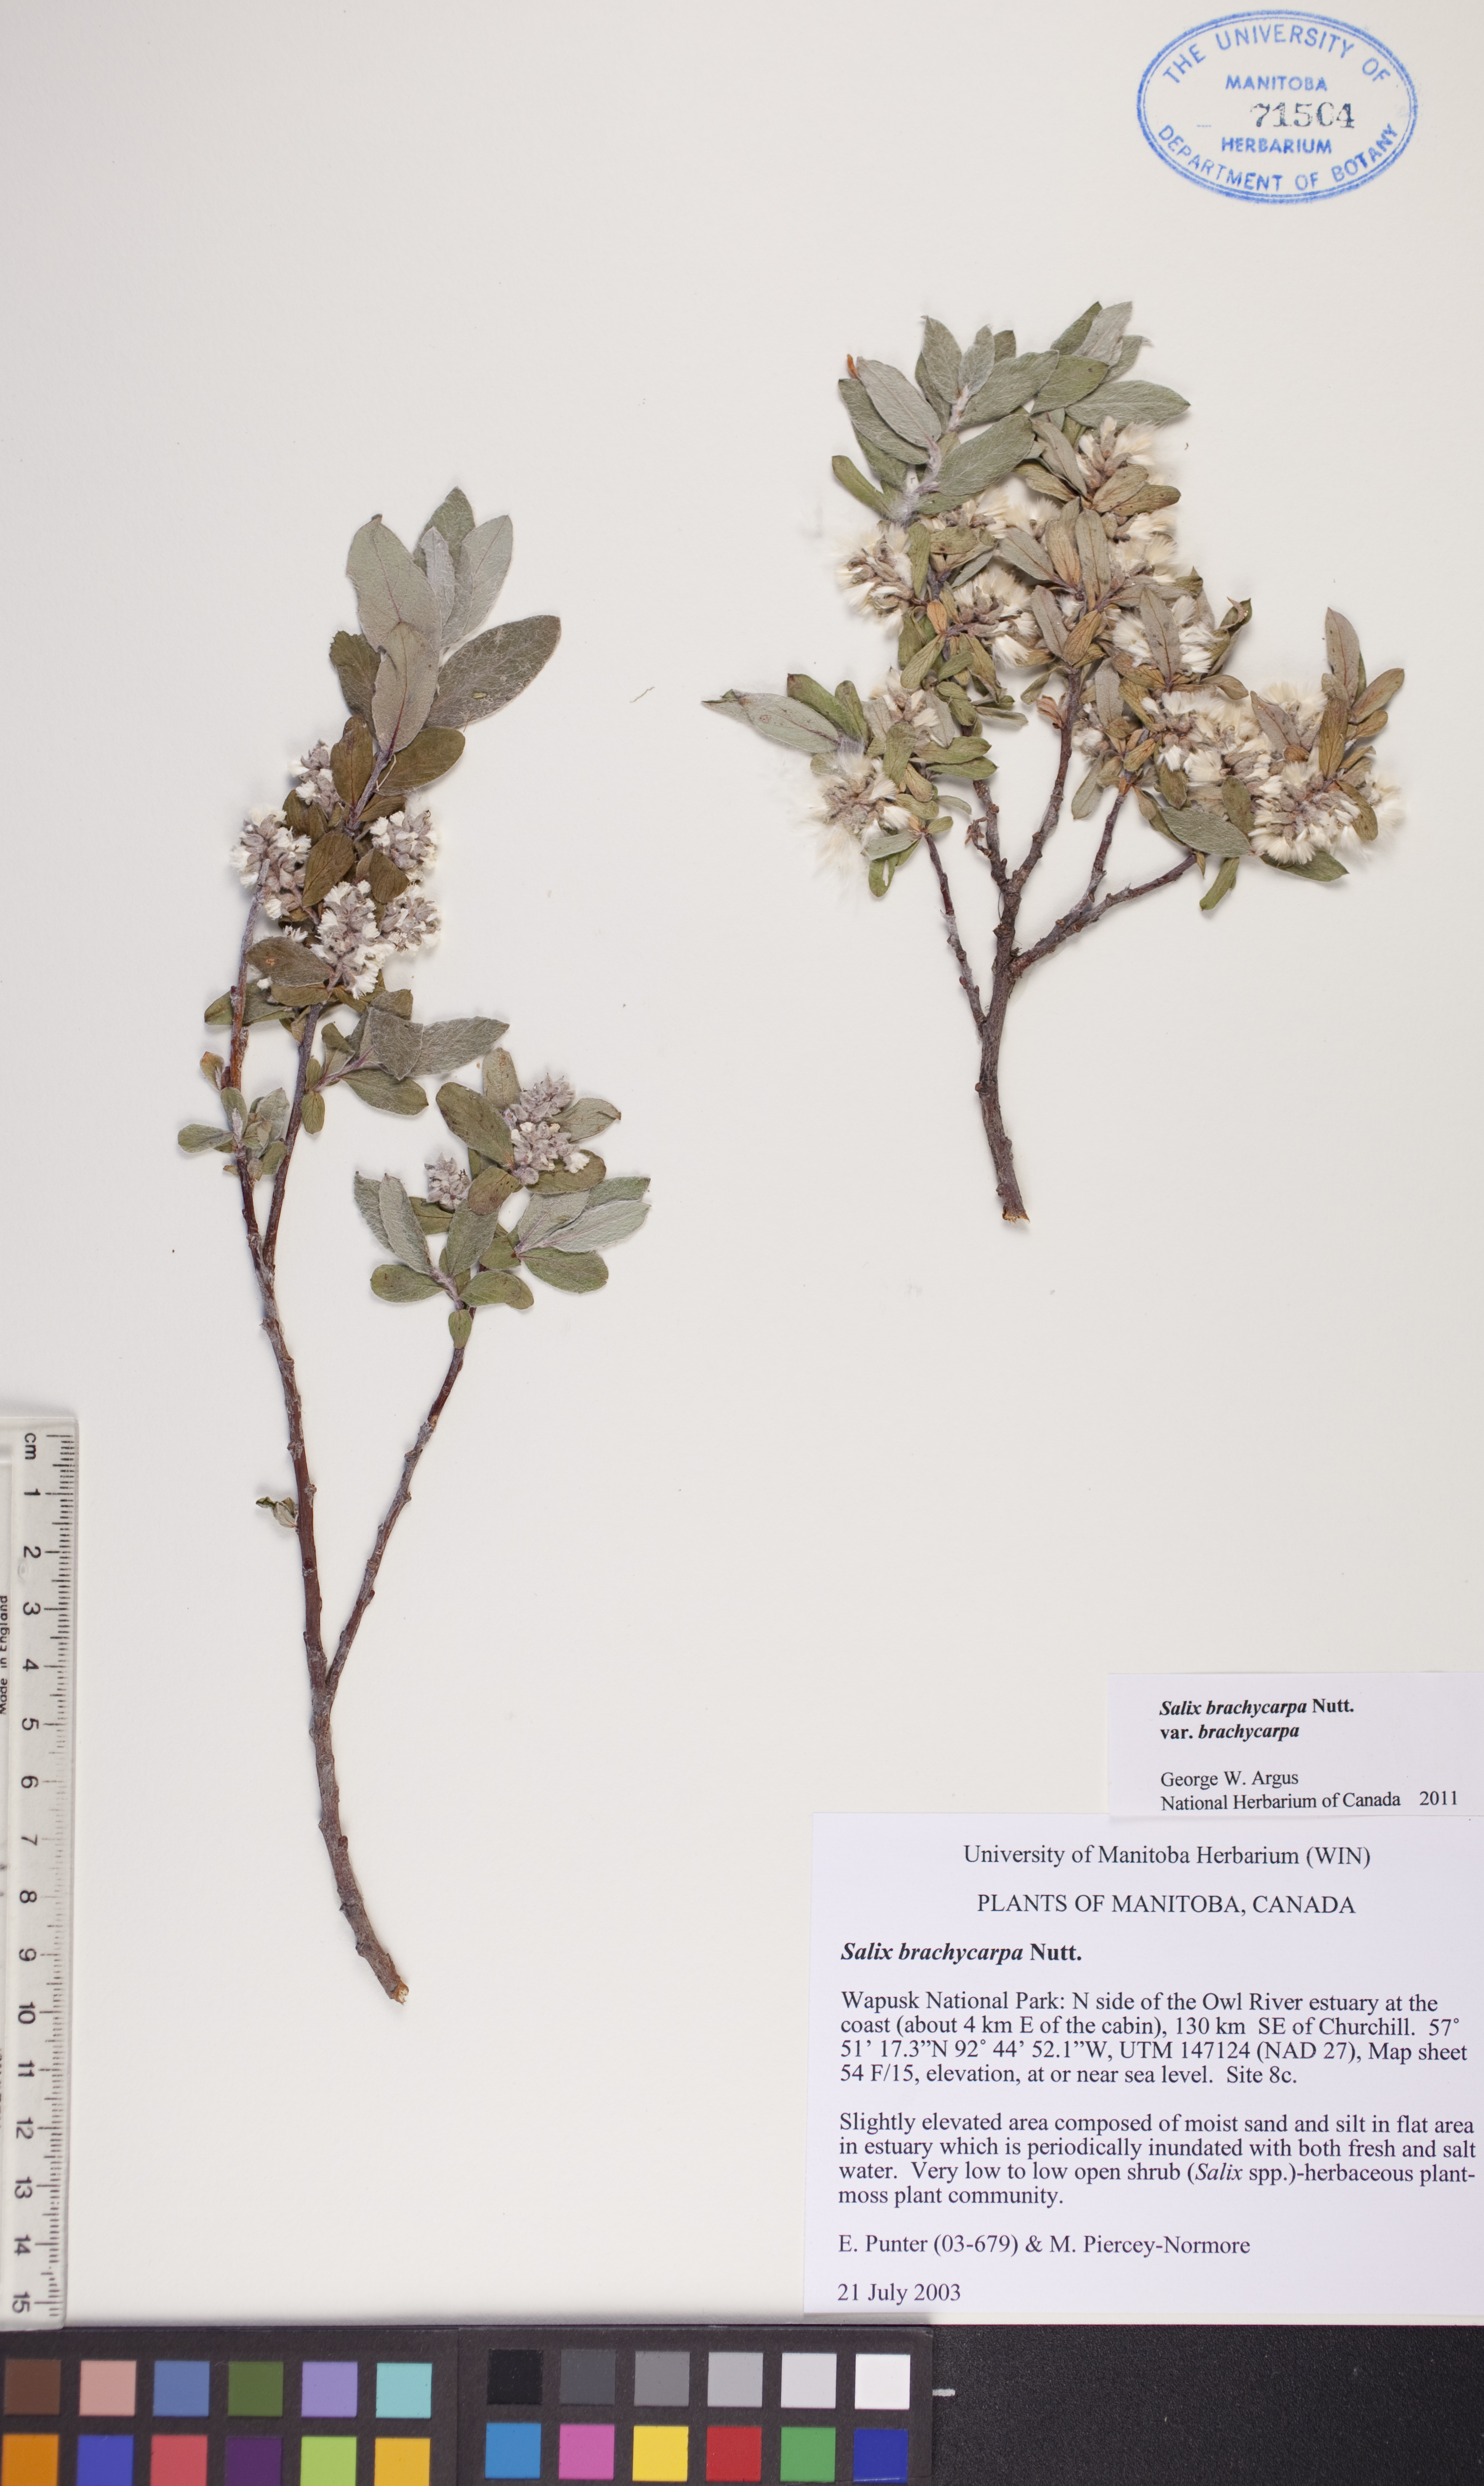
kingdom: Plantae
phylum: Tracheophyta
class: Magnoliopsida
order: Malpighiales
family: Salicaceae
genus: Salix
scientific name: Salix brachycarpa
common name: Barren-ground willow
